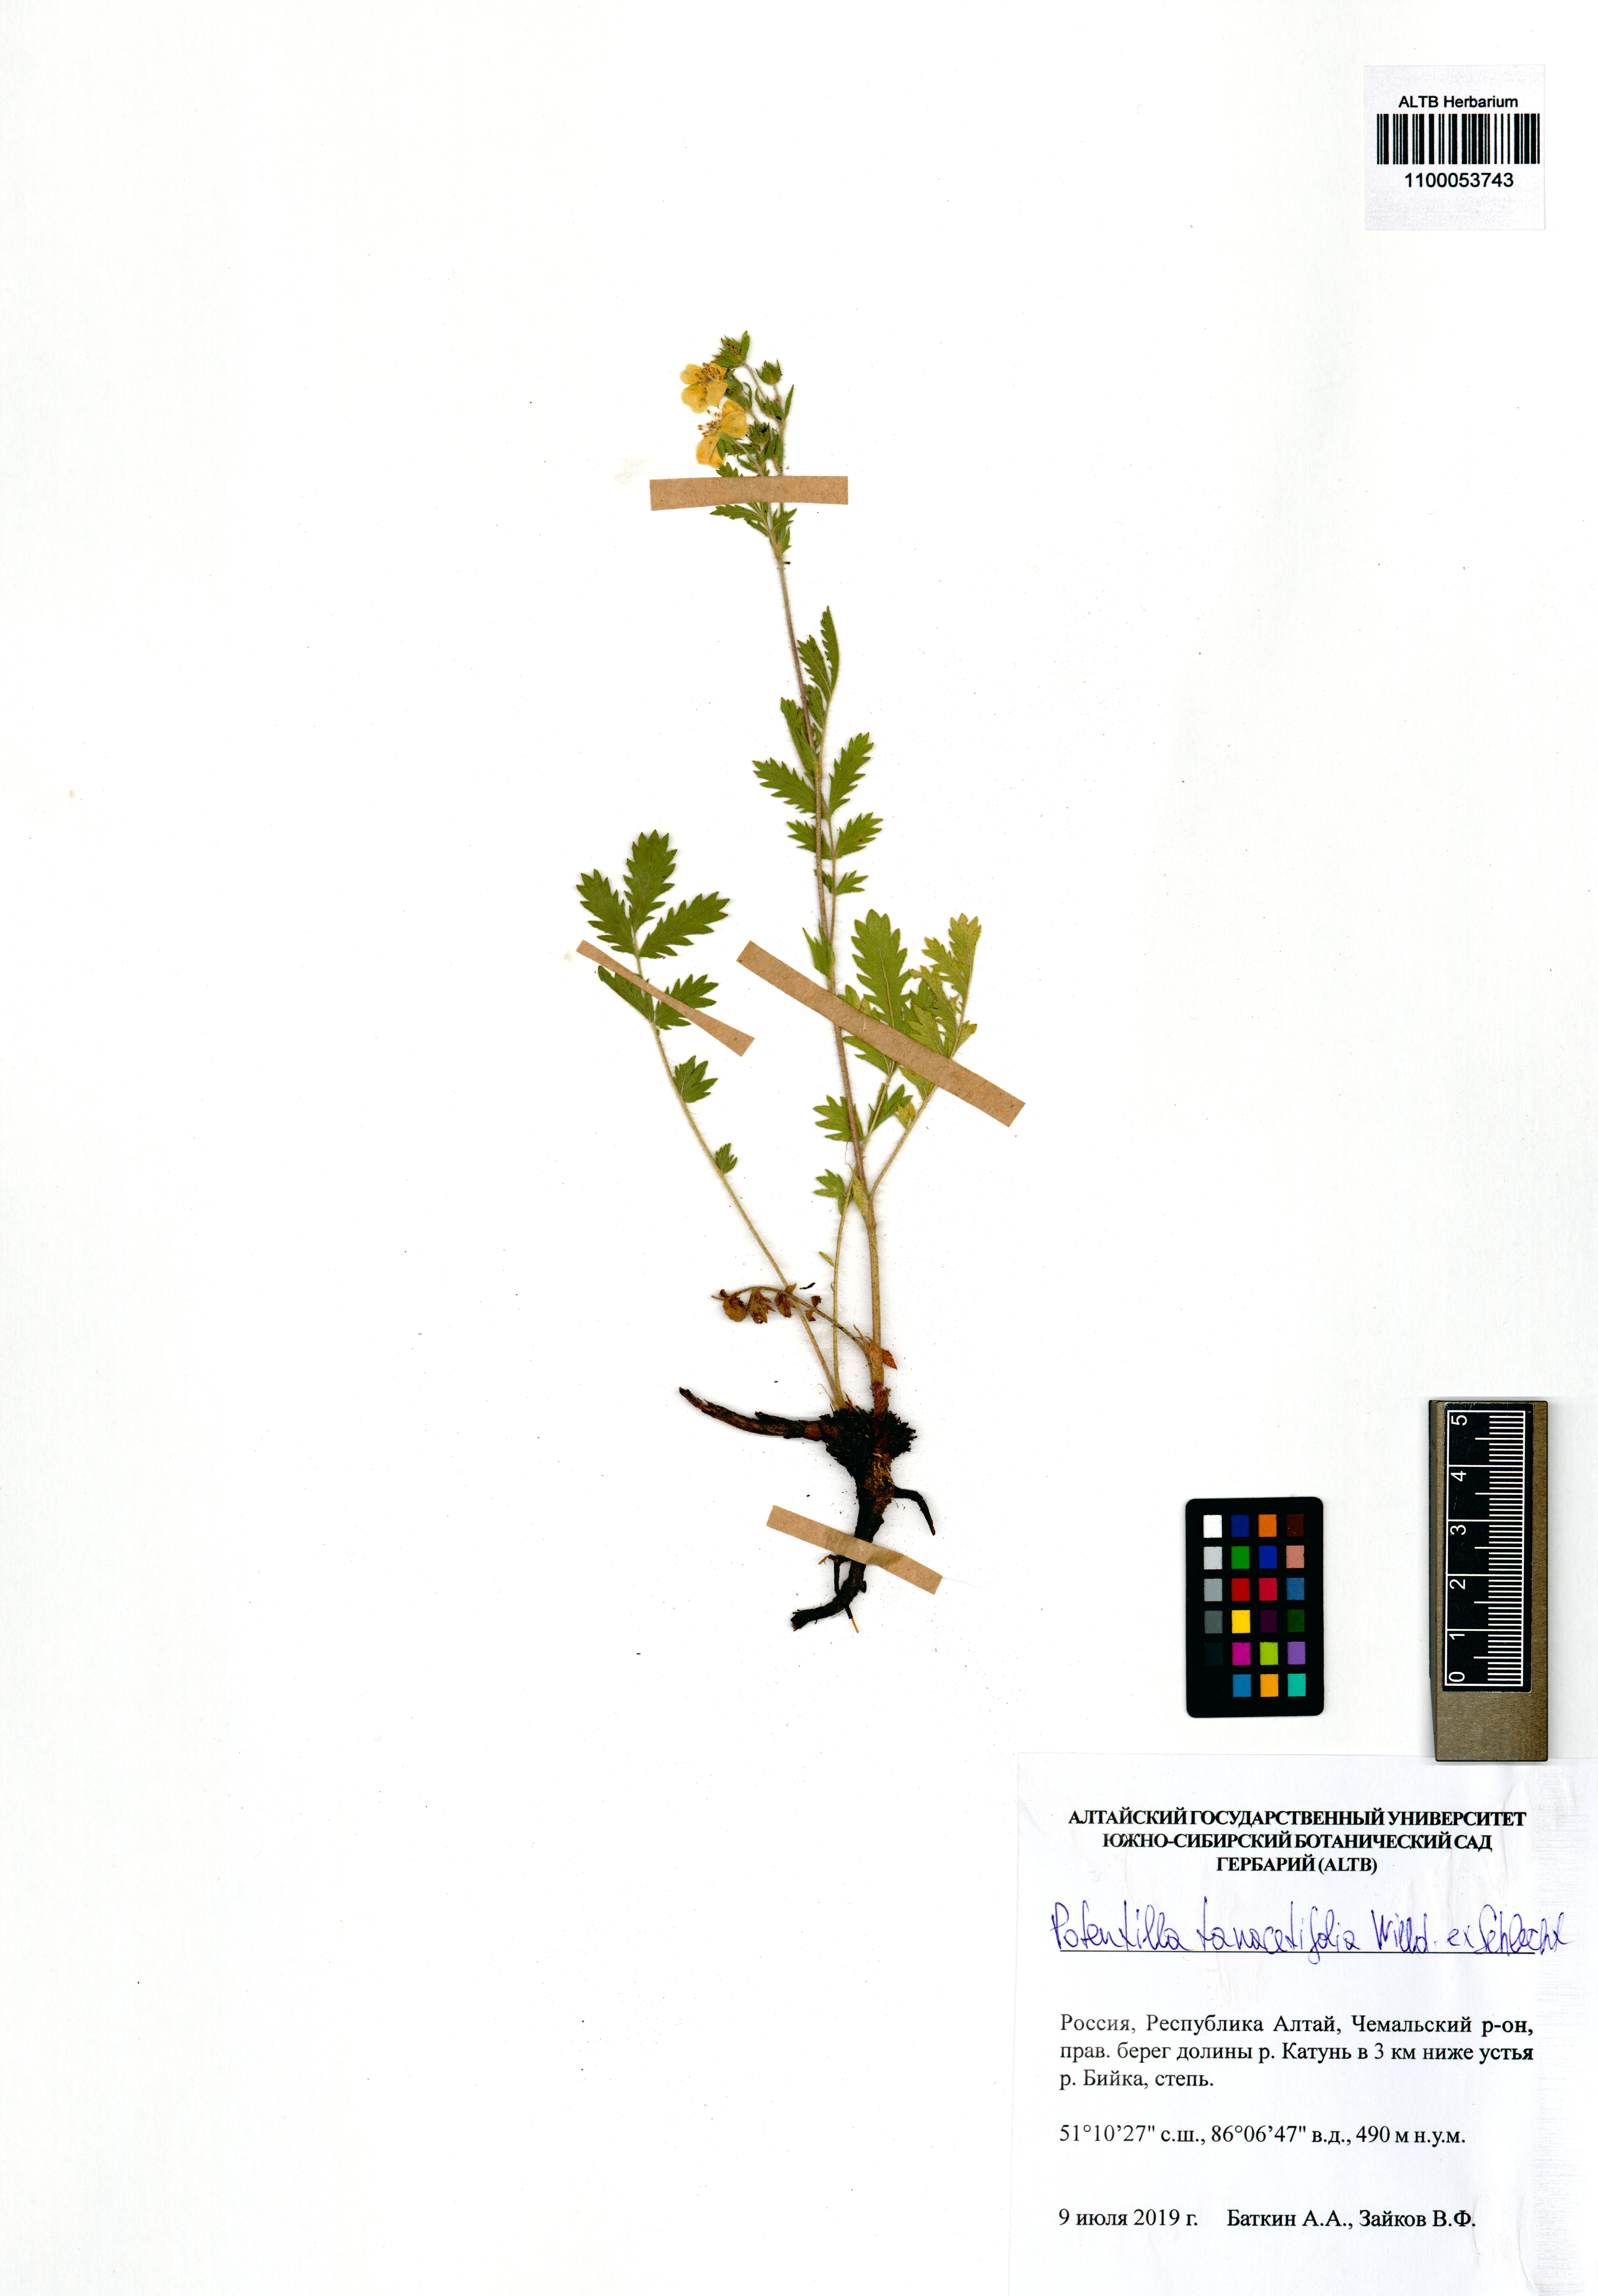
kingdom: Plantae
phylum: Tracheophyta
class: Magnoliopsida
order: Rosales
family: Rosaceae
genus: Potentilla
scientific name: Potentilla tanacetifolia
